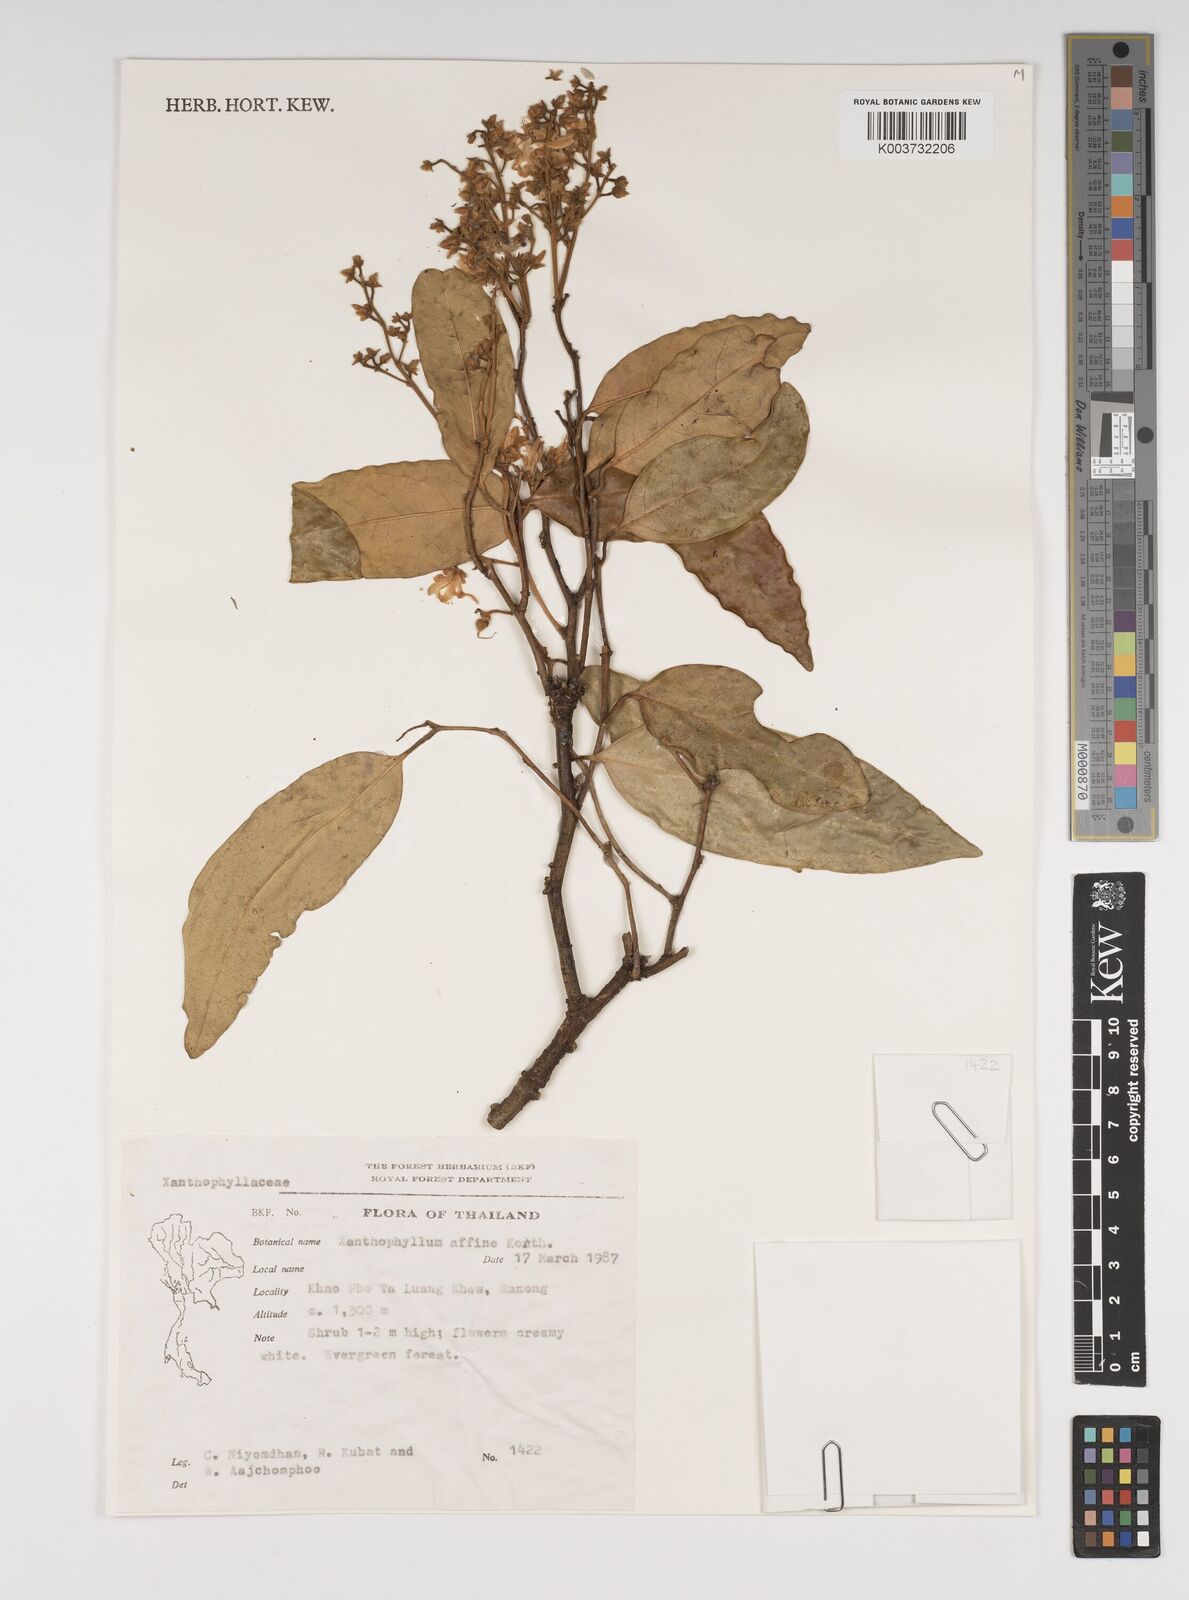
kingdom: Plantae
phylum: Tracheophyta
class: Magnoliopsida
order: Fabales
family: Polygalaceae
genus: Xanthophyllum
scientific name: Xanthophyllum flavescens
